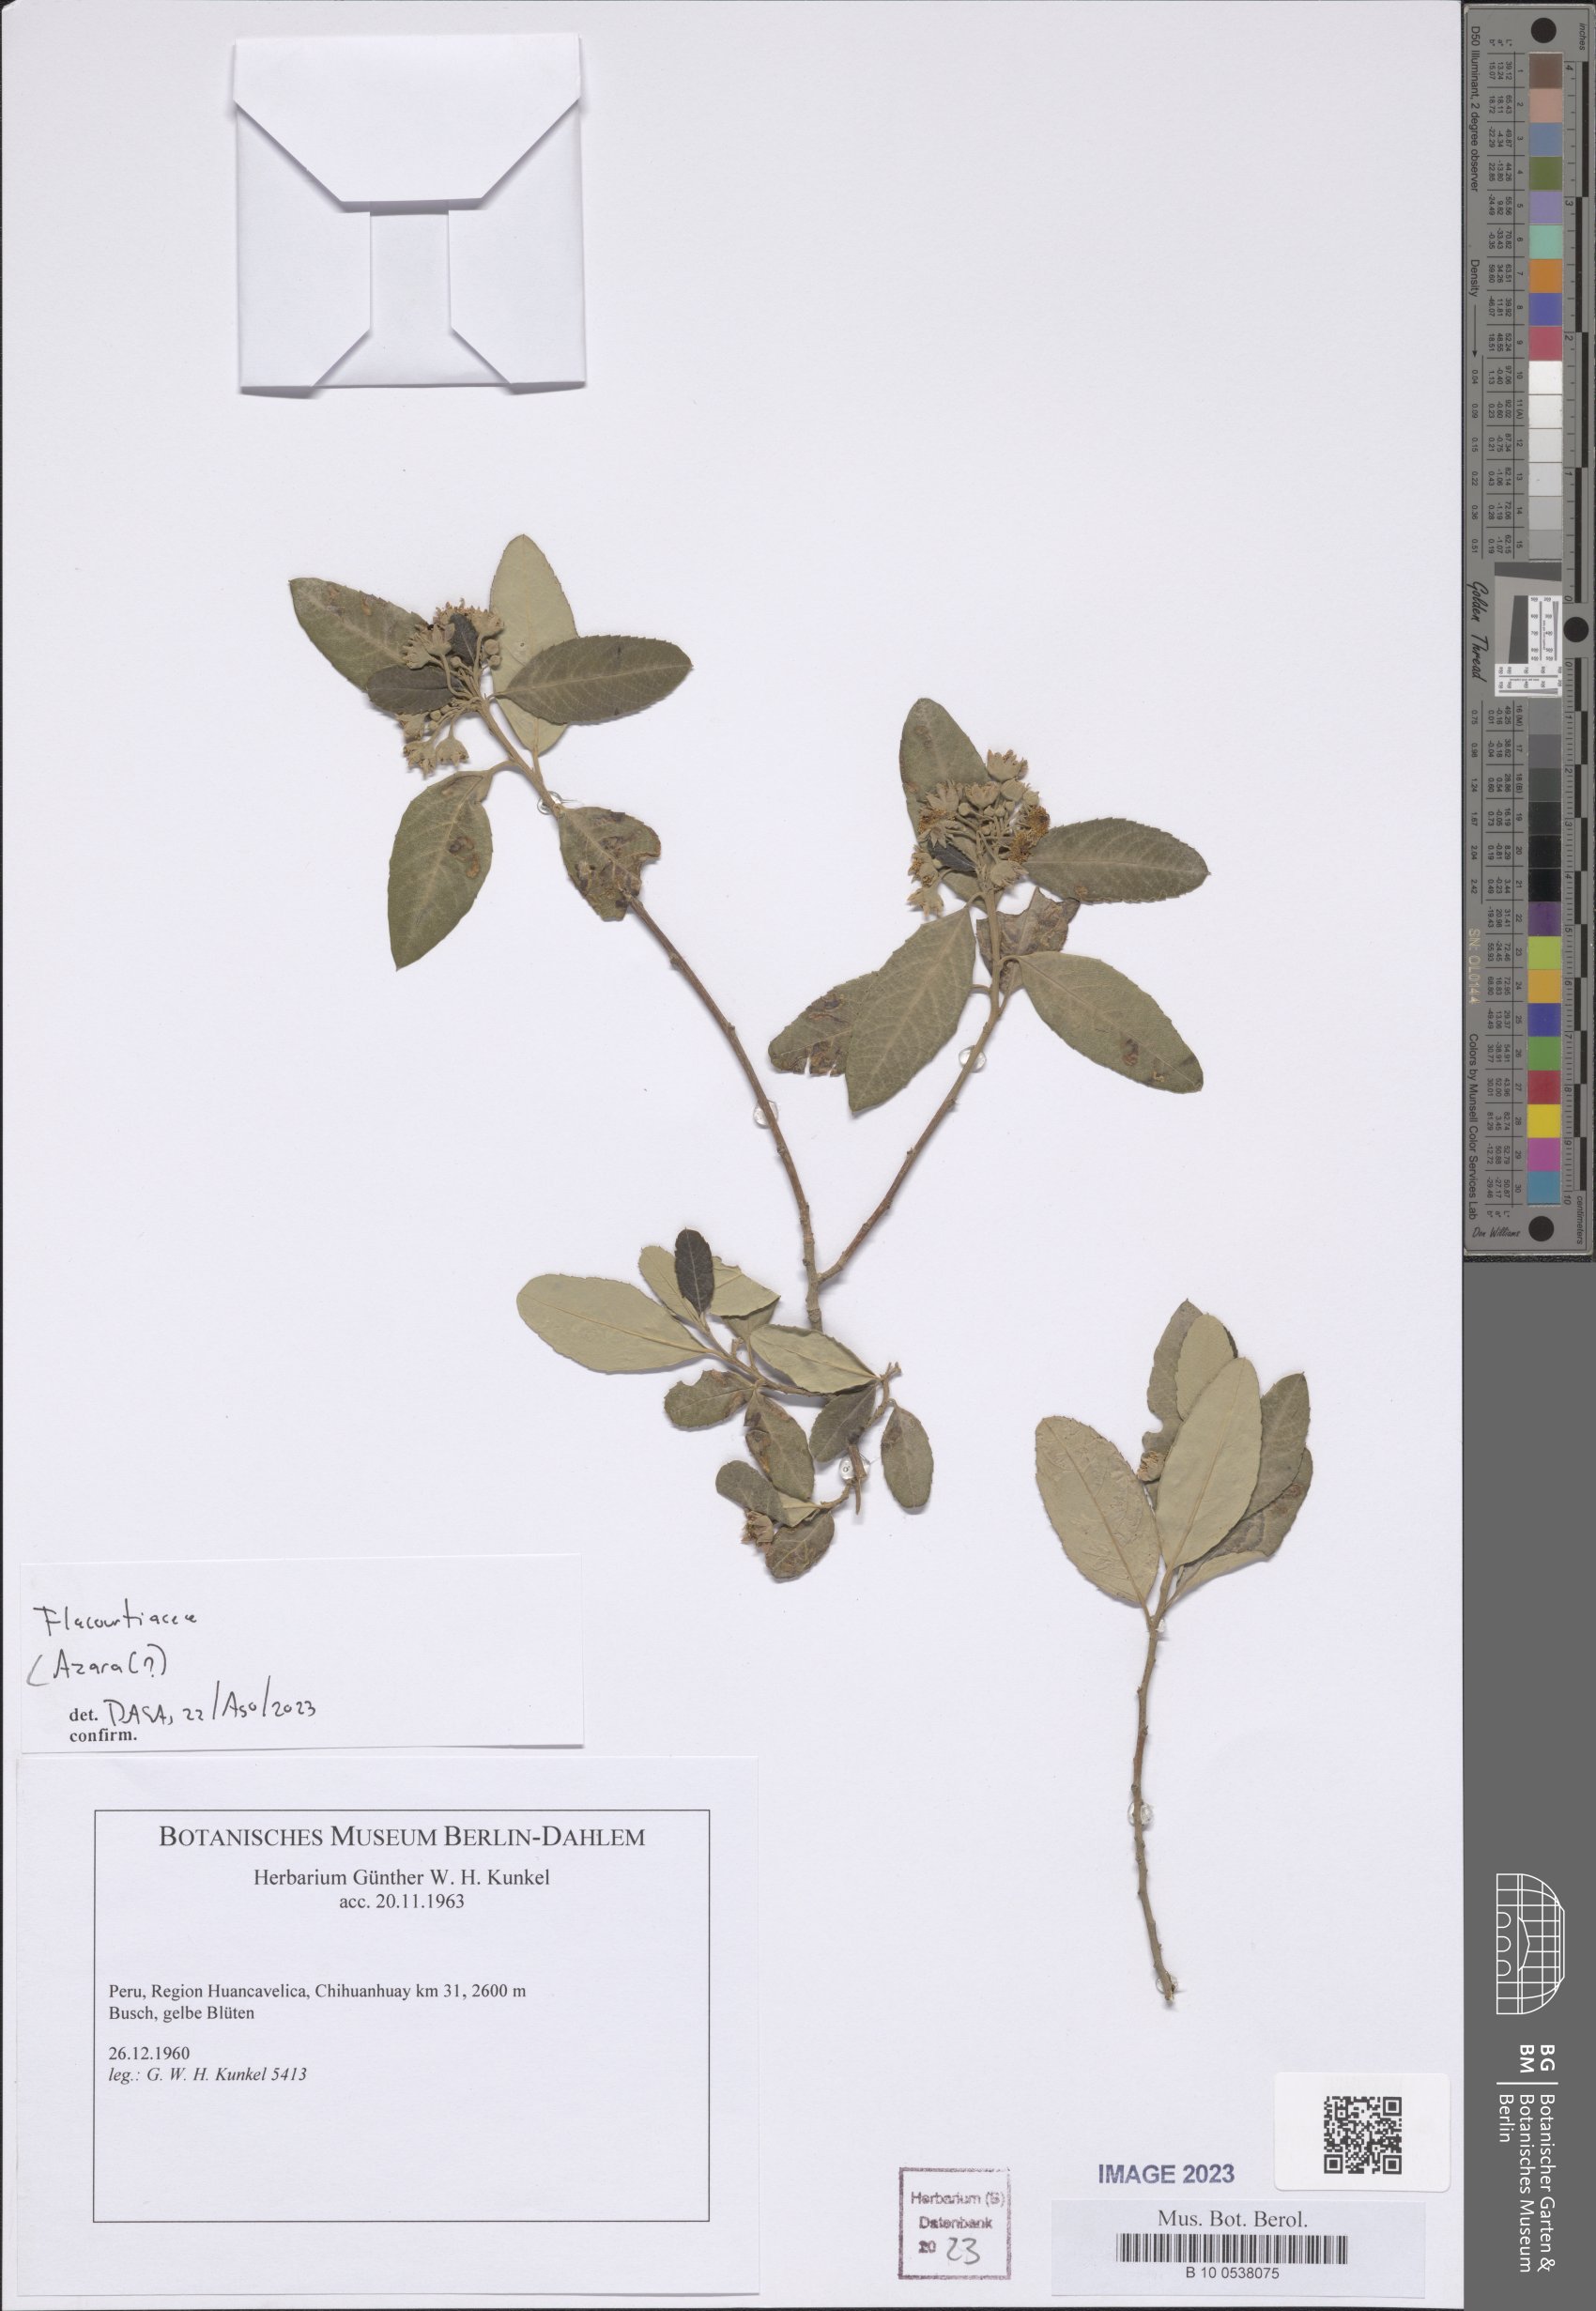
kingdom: Plantae
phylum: Tracheophyta
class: Magnoliopsida
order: Malpighiales
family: Salicaceae
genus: Azara
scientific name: Azara
